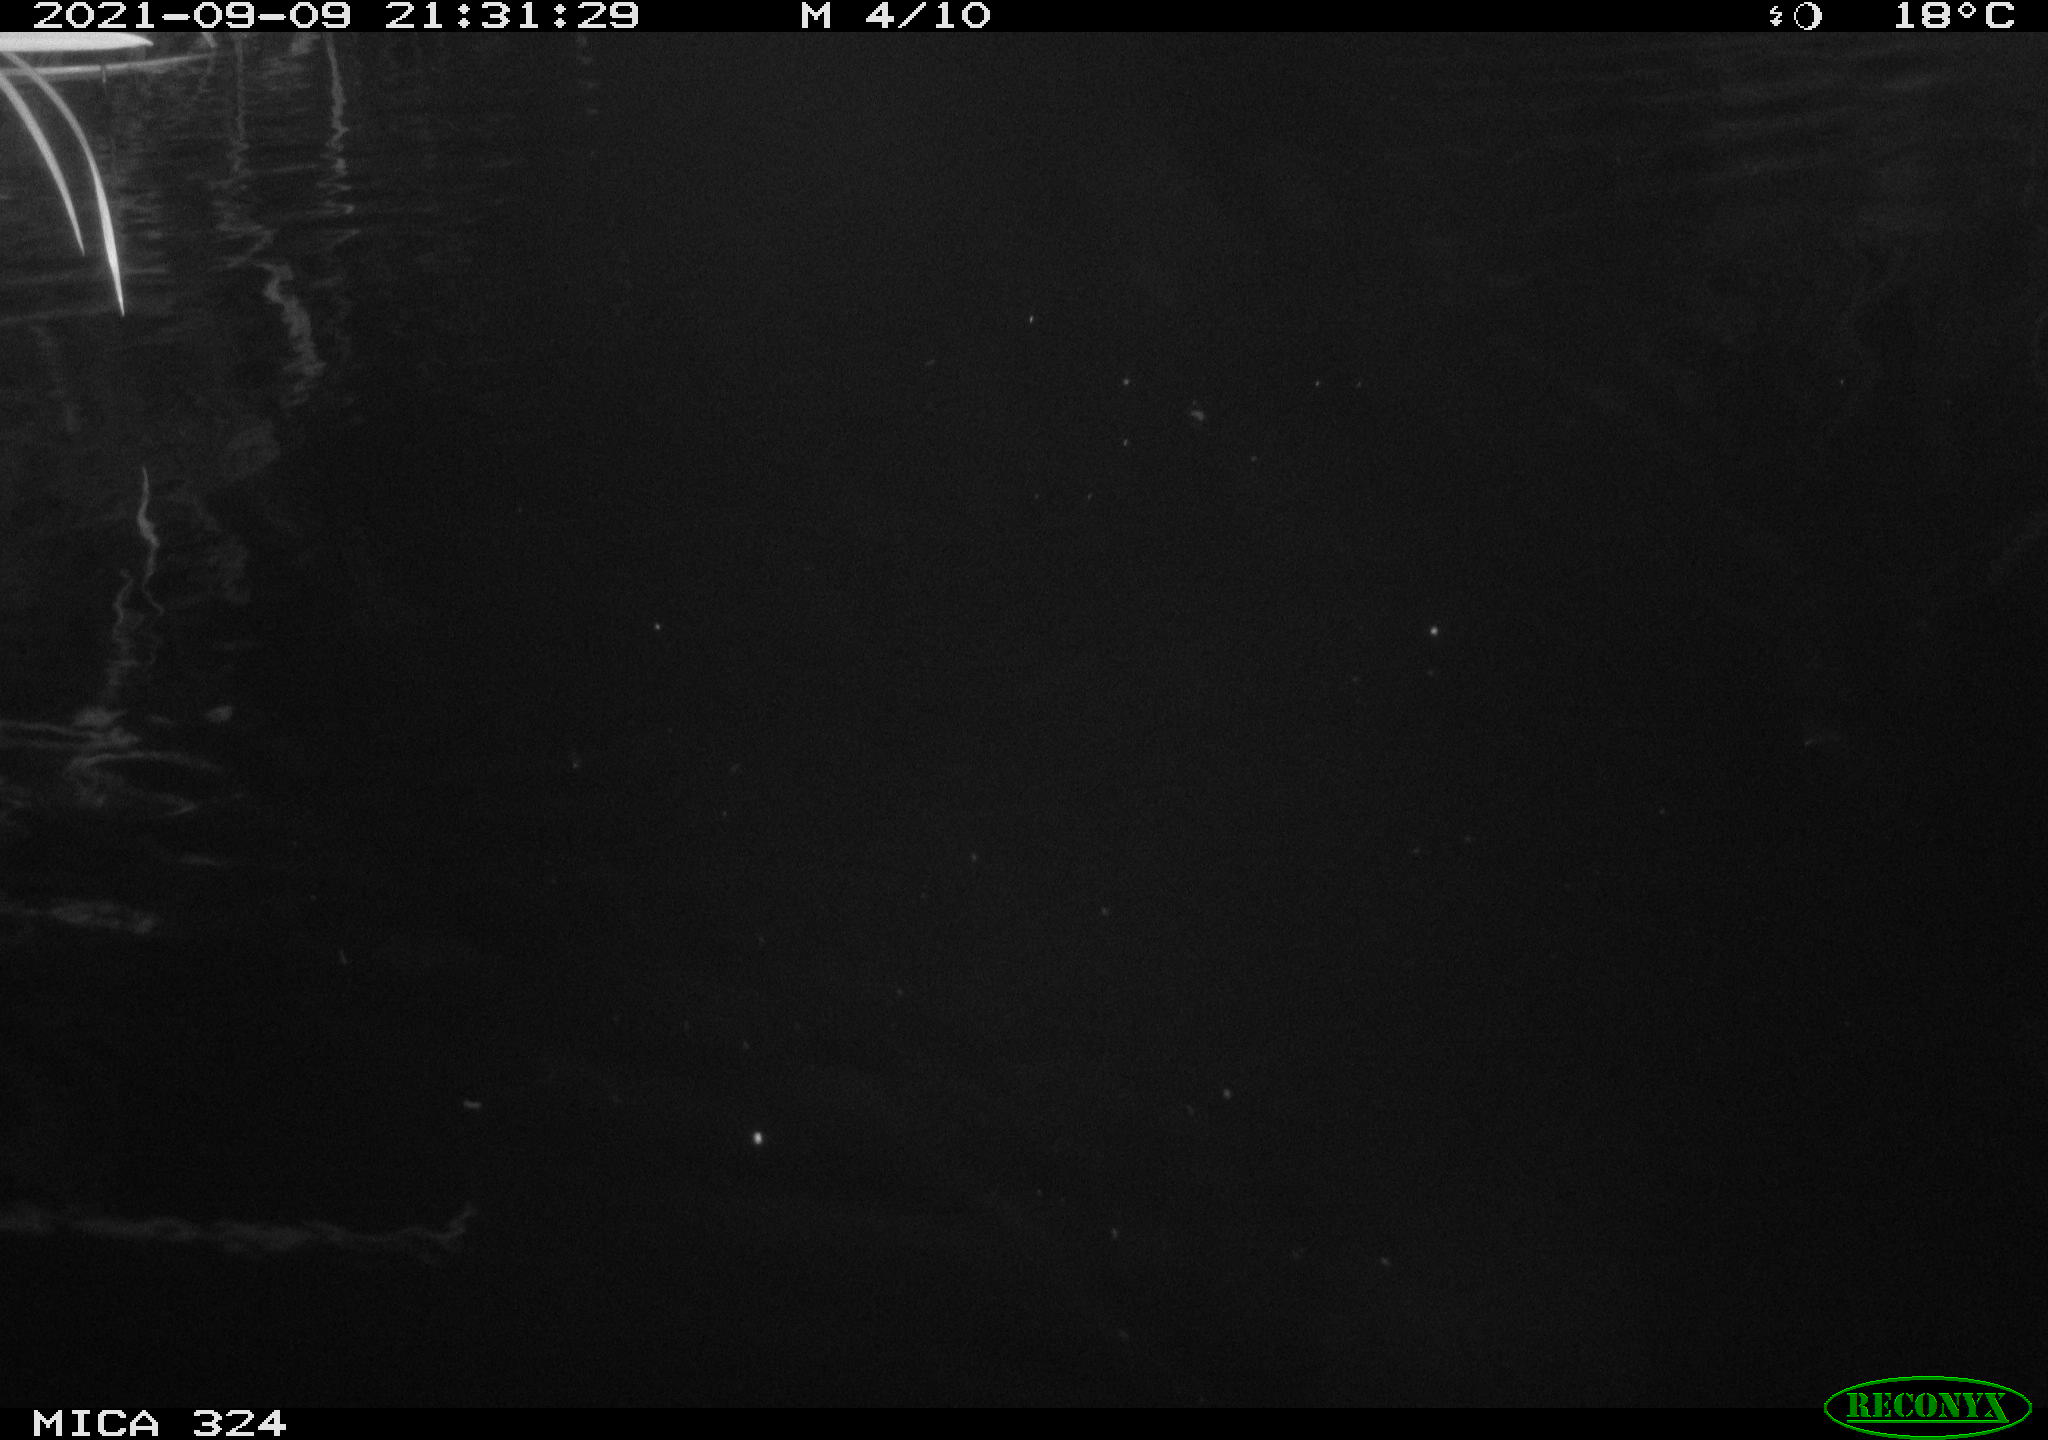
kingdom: Animalia
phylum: Chordata
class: Mammalia
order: Rodentia
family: Cricetidae
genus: Ondatra
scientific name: Ondatra zibethicus
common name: Muskrat
